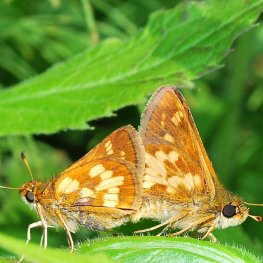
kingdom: Animalia
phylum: Arthropoda
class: Insecta
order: Lepidoptera
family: Hesperiidae
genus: Polites
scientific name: Polites coras
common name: Peck's Skipper
